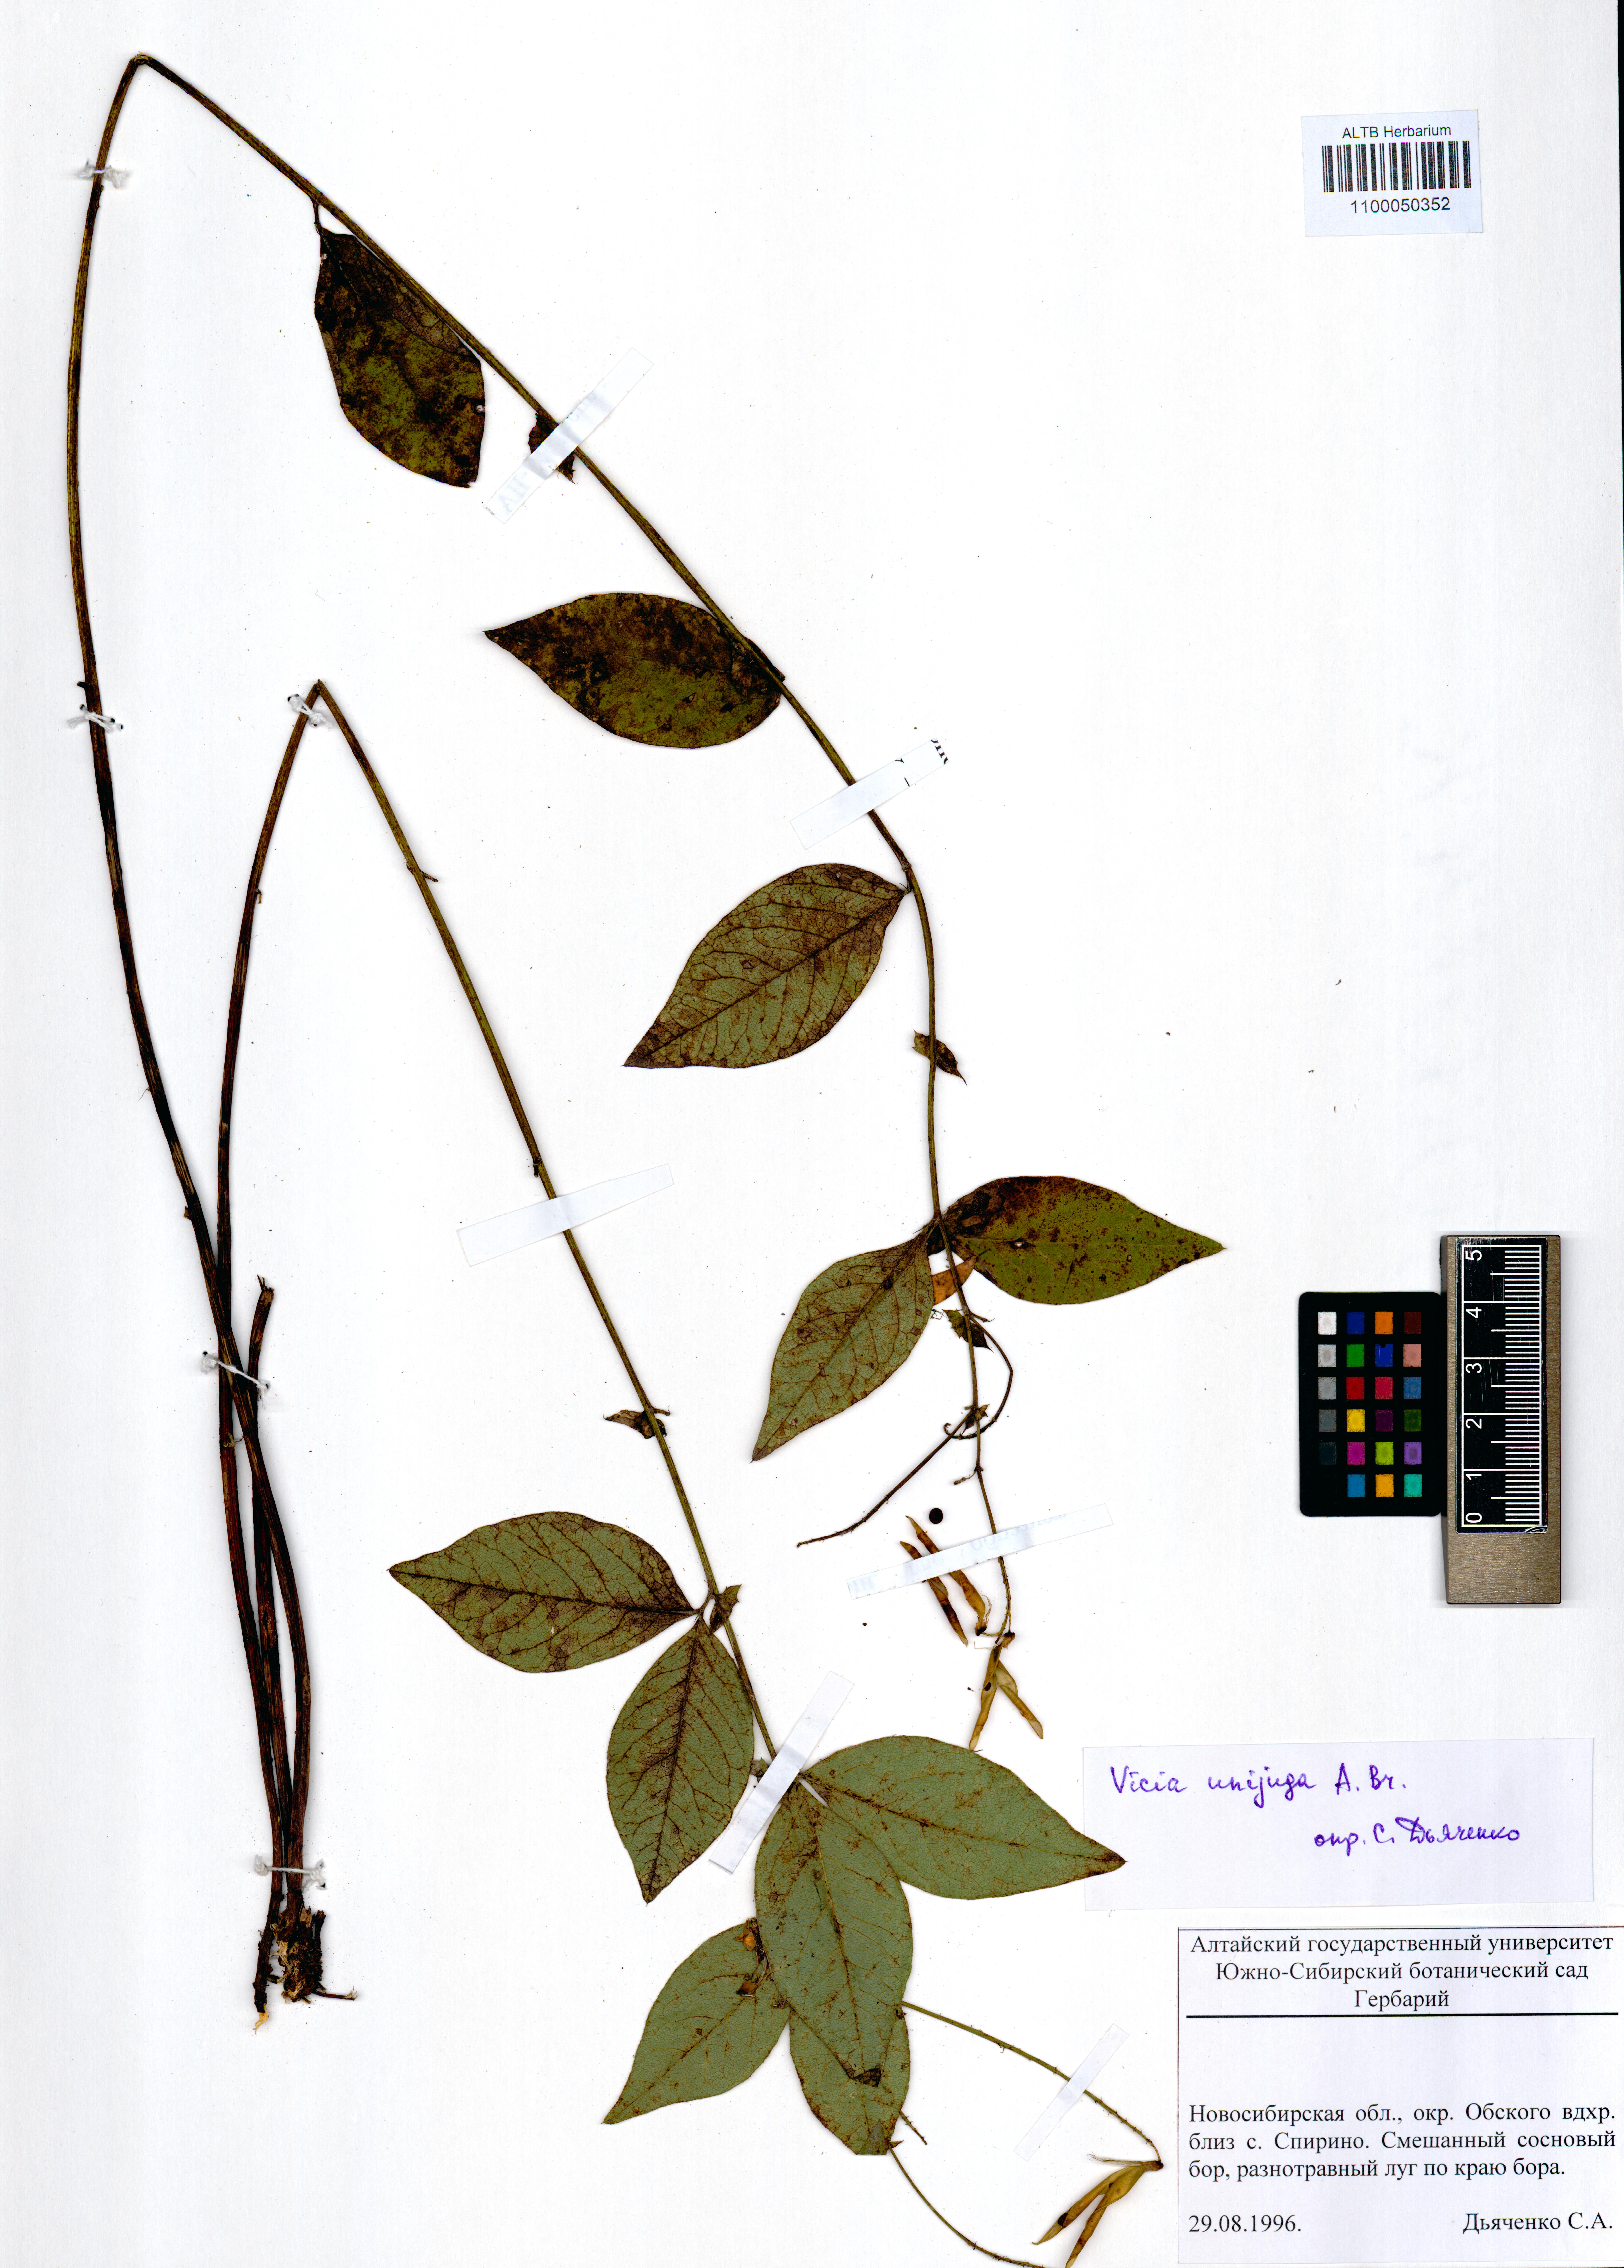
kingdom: Plantae
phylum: Tracheophyta
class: Magnoliopsida
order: Fabales
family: Fabaceae
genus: Vicia
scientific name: Vicia unijuga
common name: Two-leaf vetch
